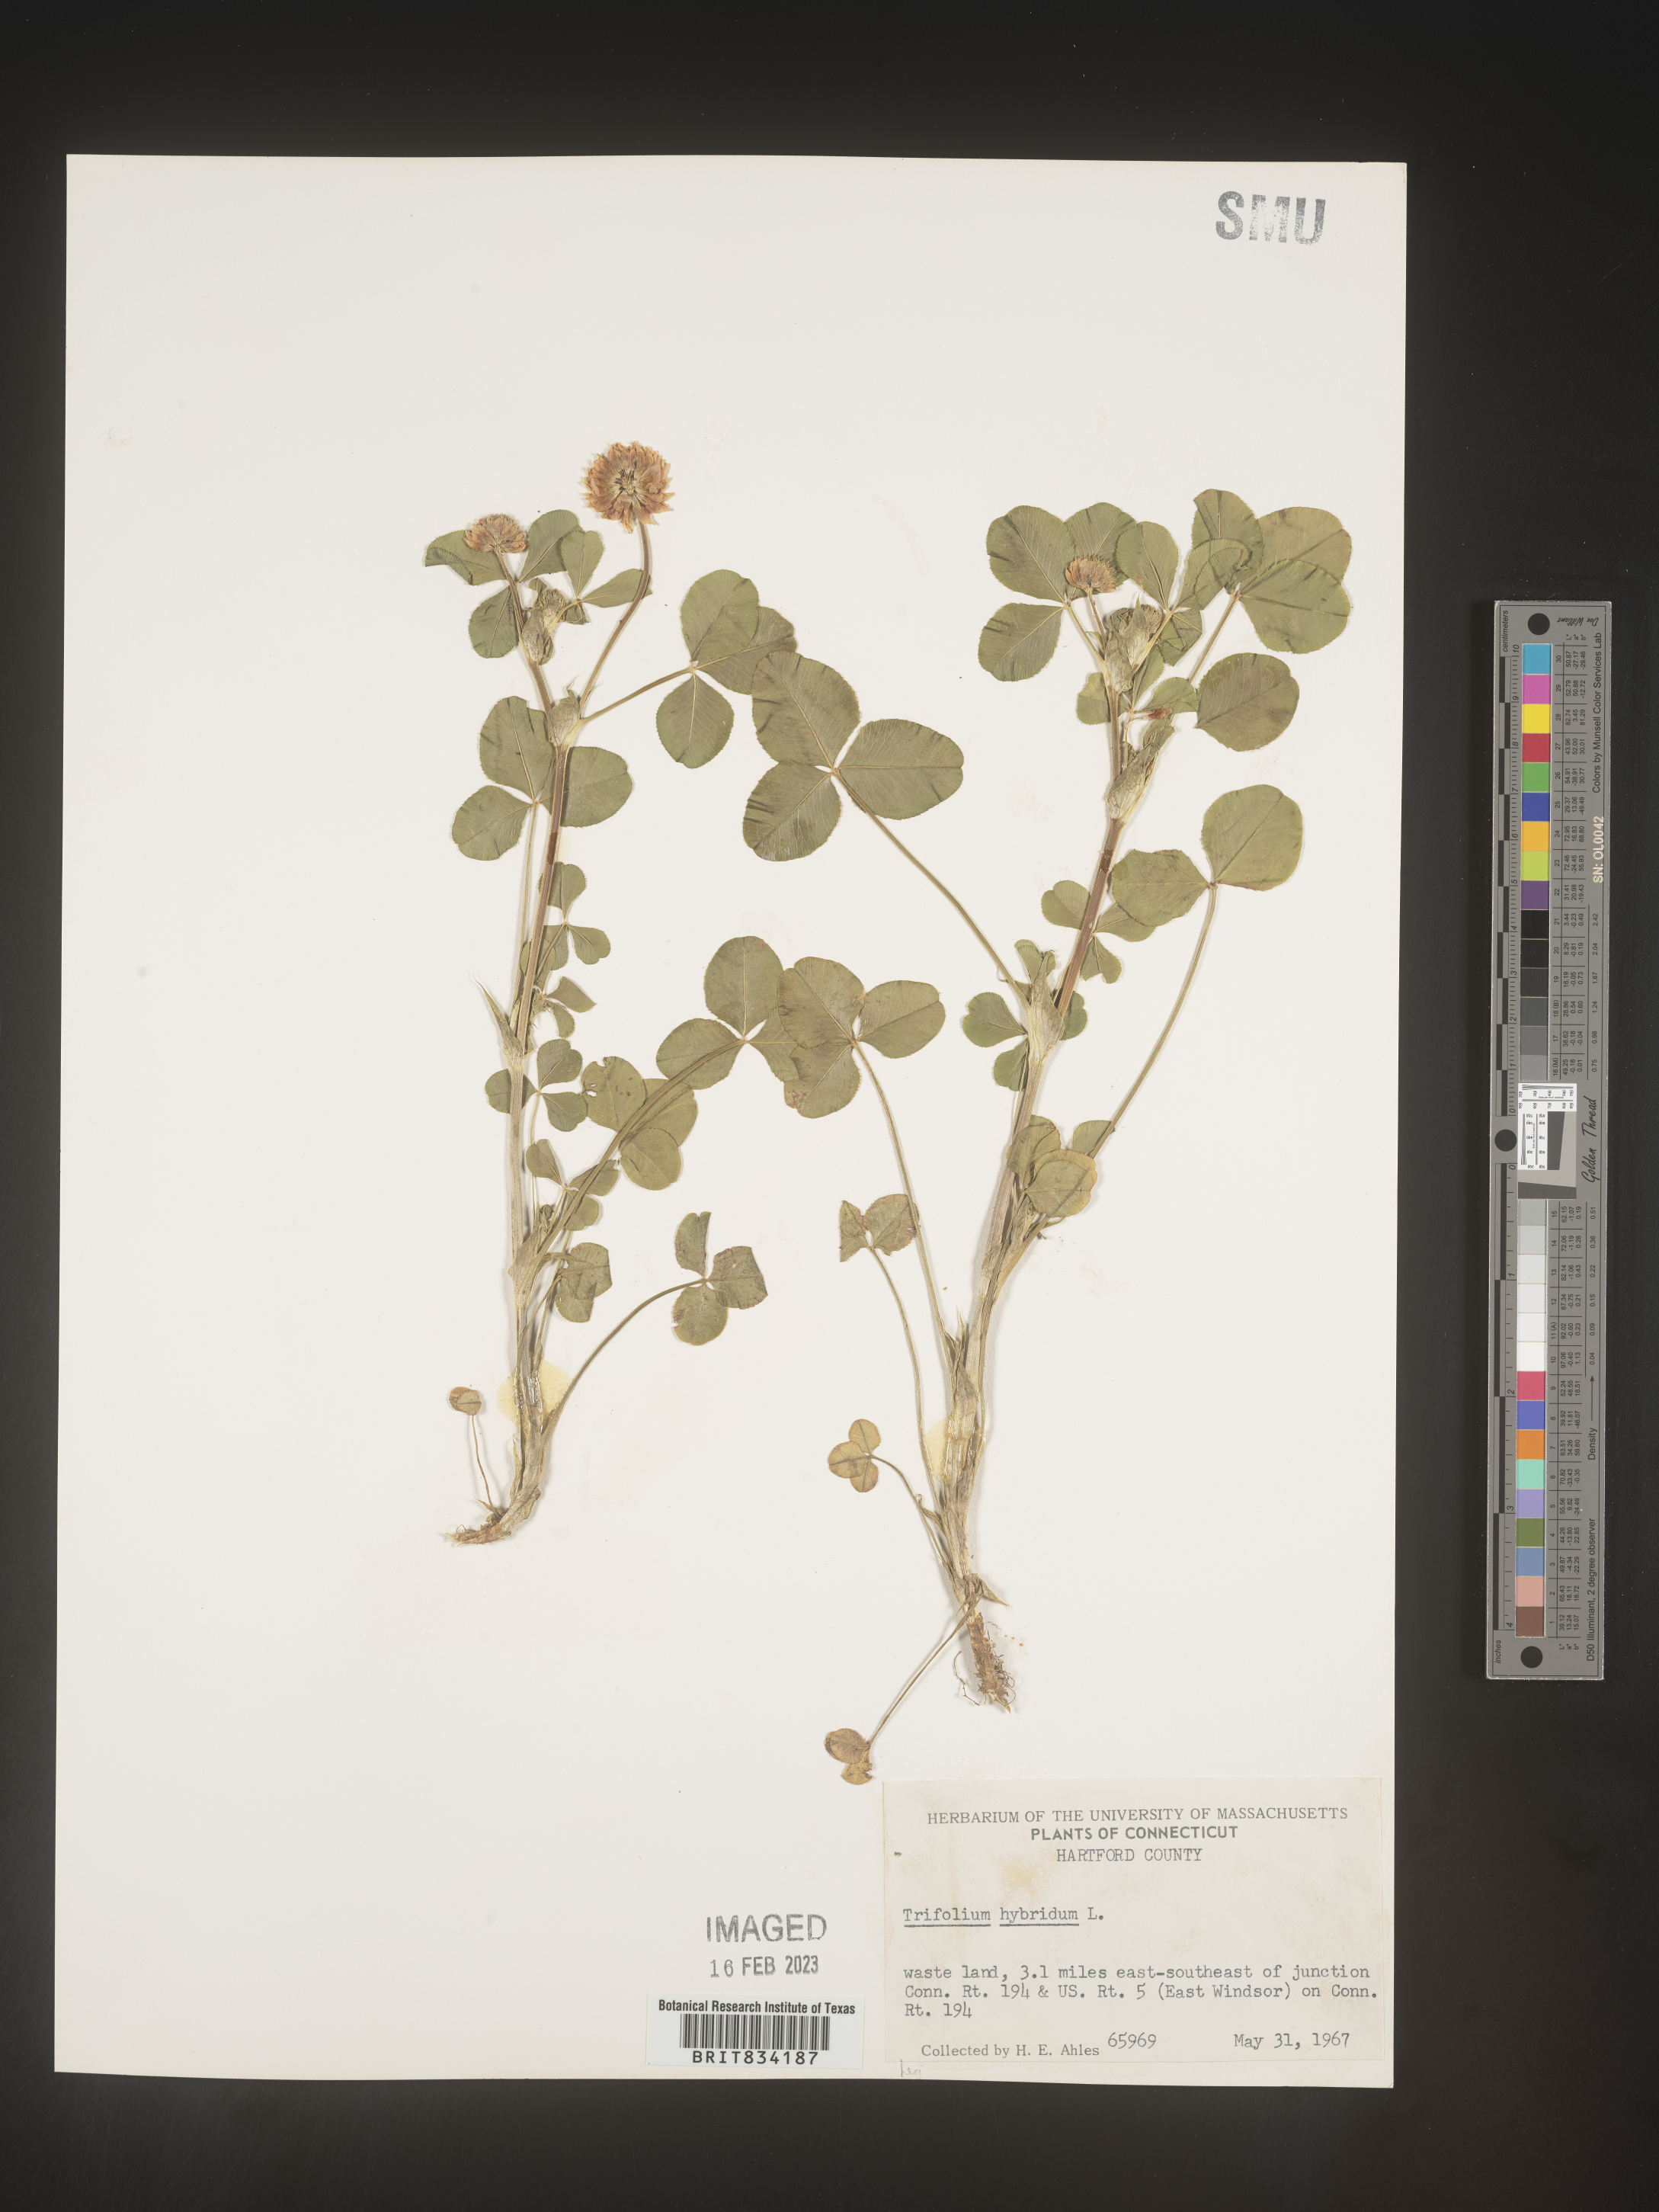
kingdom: Plantae
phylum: Tracheophyta
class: Magnoliopsida
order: Fabales
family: Fabaceae
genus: Trifolium
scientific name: Trifolium hybridum
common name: Alsike clover
